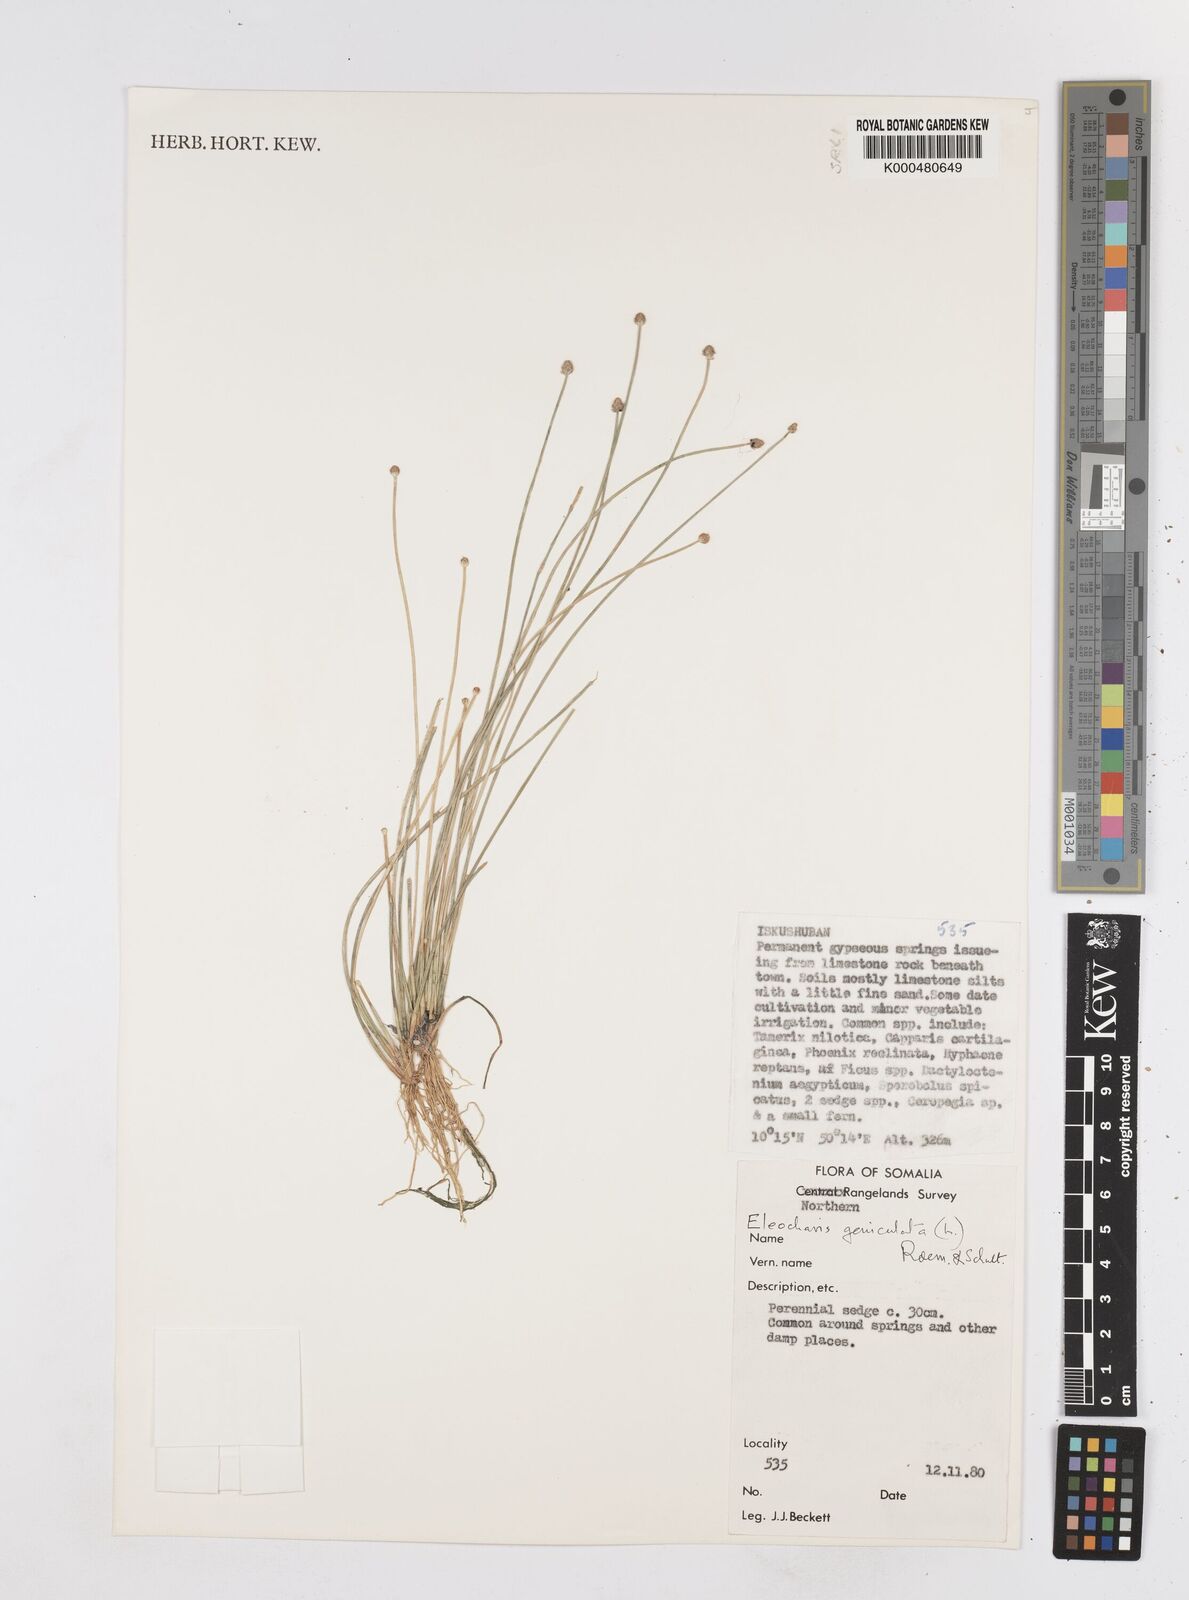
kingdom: Plantae
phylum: Tracheophyta
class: Liliopsida
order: Poales
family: Cyperaceae
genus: Eleocharis
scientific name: Eleocharis geniculata
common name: Canada spikesedge
